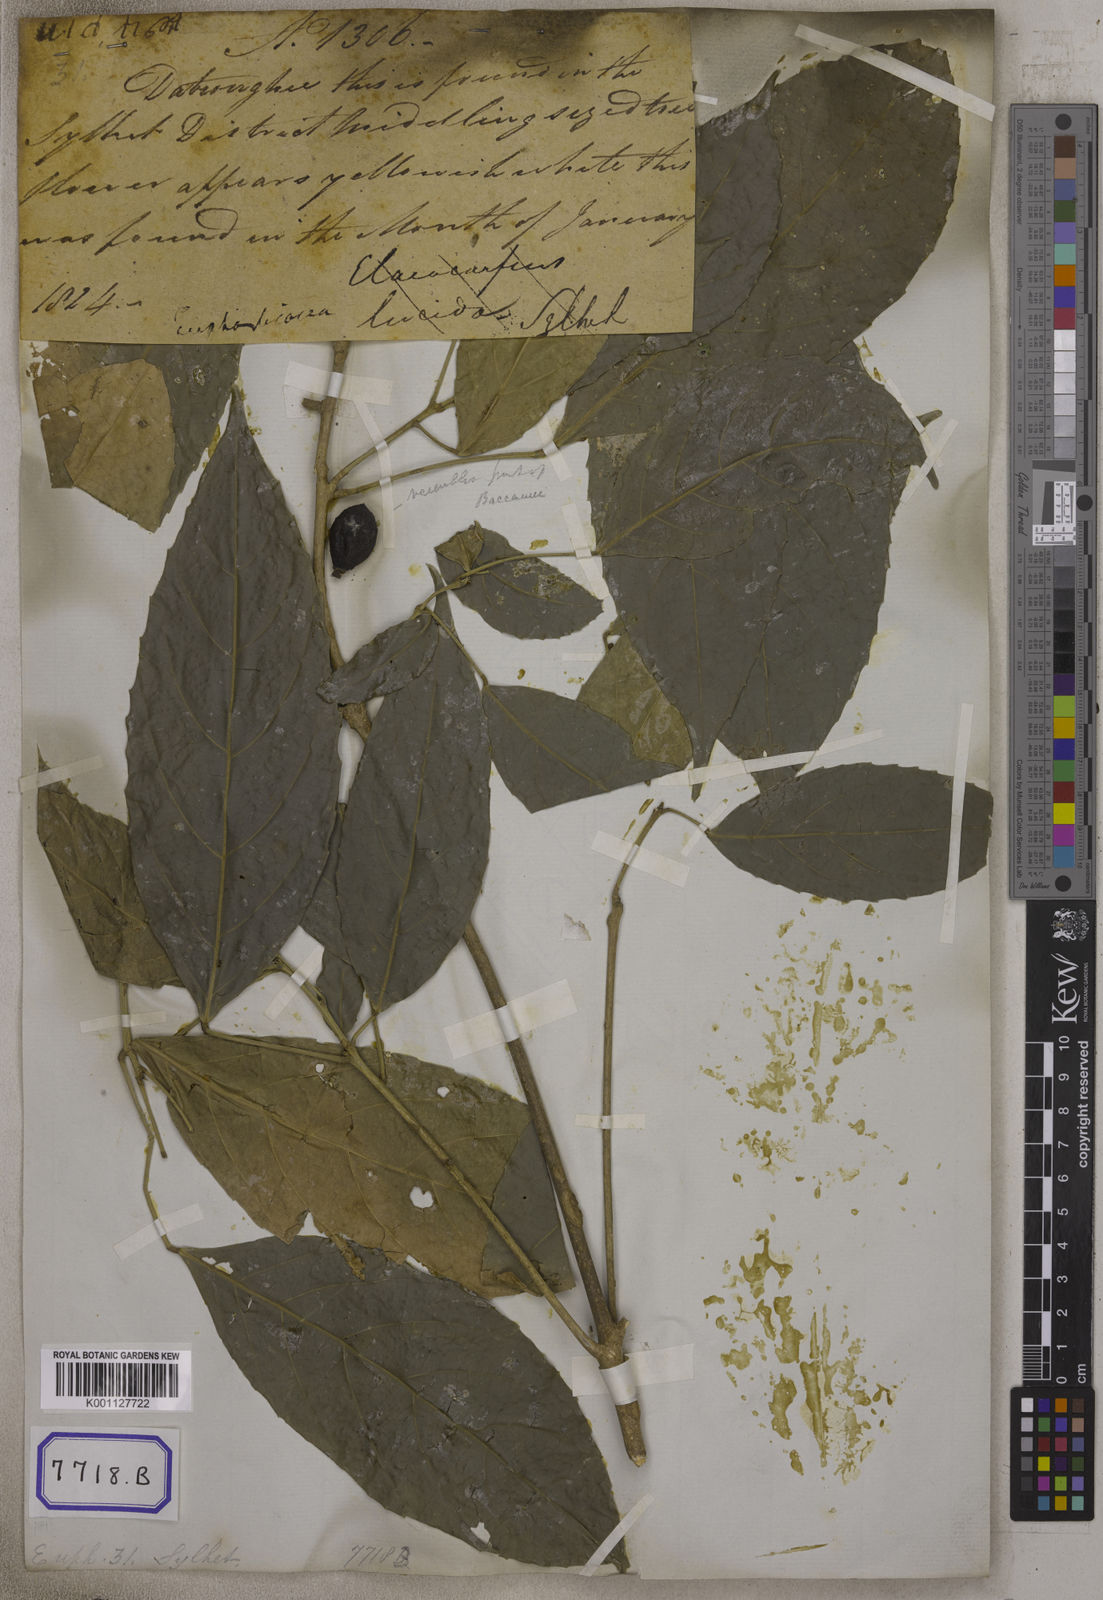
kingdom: Plantae
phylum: Tracheophyta
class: Magnoliopsida
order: Malpighiales
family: Euphorbiaceae
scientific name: Euphorbiaceae
